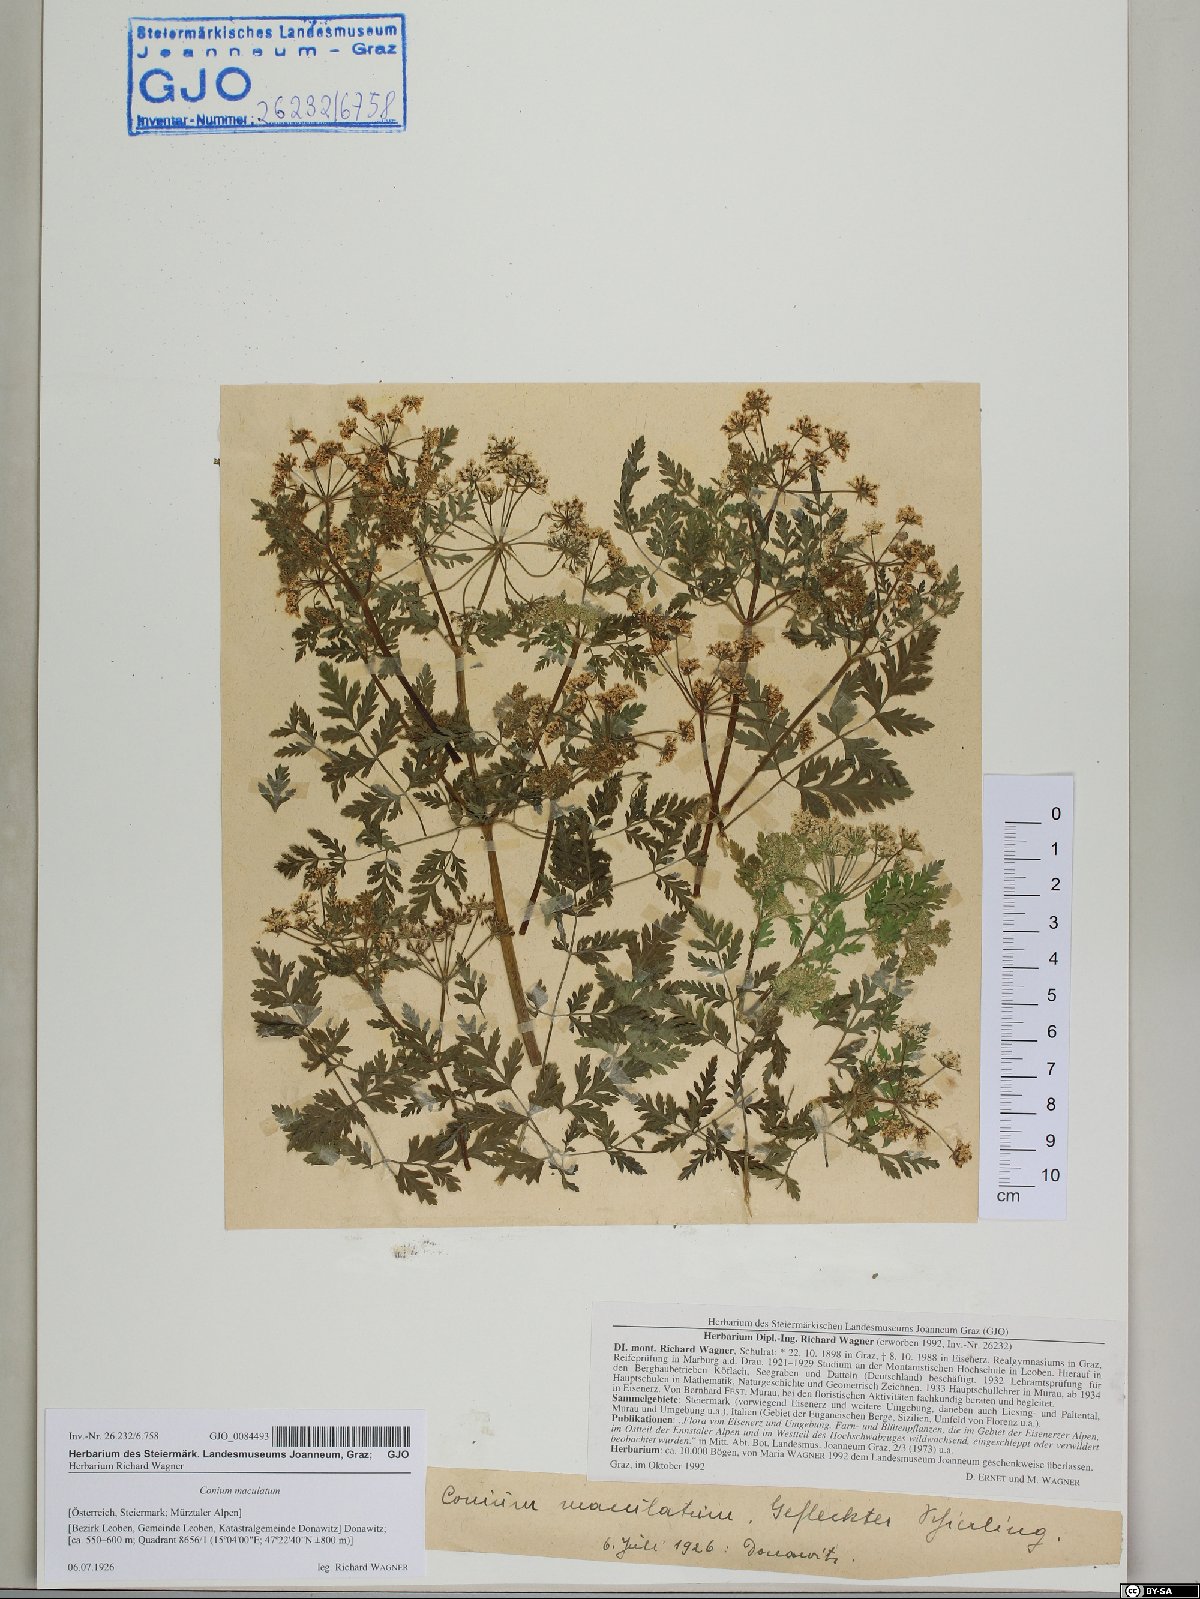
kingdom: Plantae
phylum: Tracheophyta
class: Magnoliopsida
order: Apiales
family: Apiaceae
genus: Conium
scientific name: Conium maculatum
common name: Hemlock
